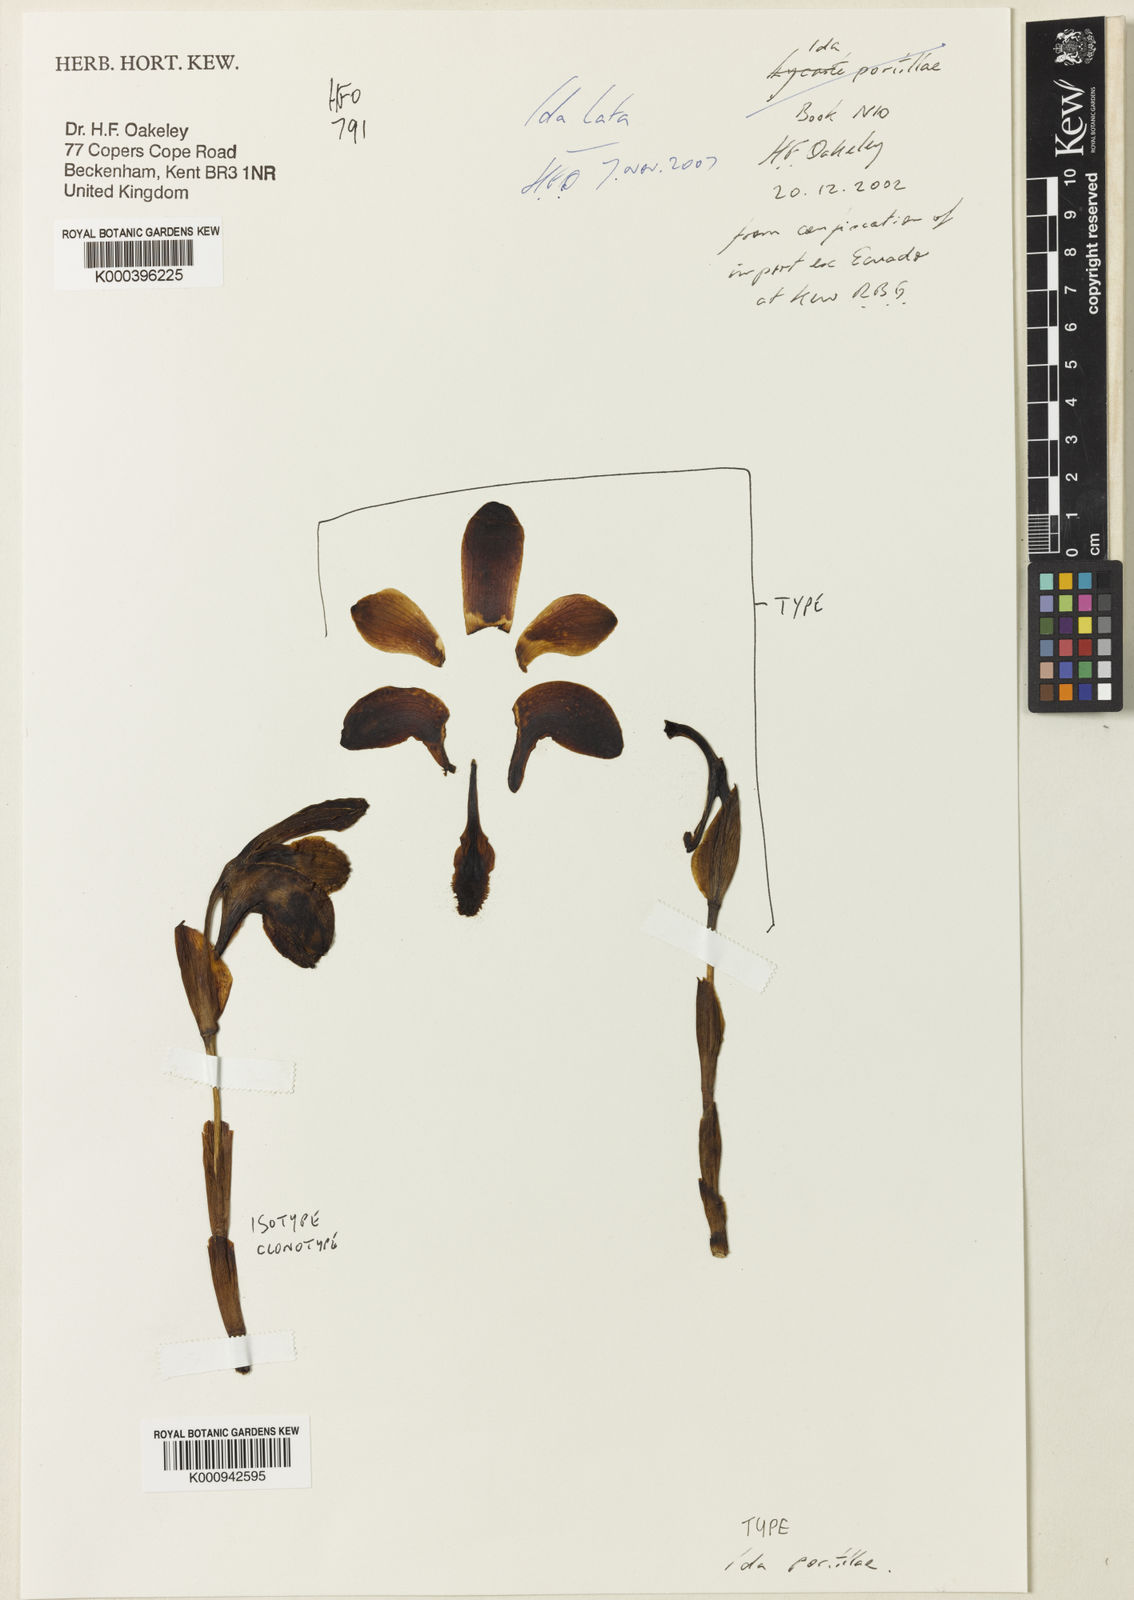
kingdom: Plantae
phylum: Tracheophyta
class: Liliopsida
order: Asparagales
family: Orchidaceae
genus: Ida
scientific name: Ida lata
